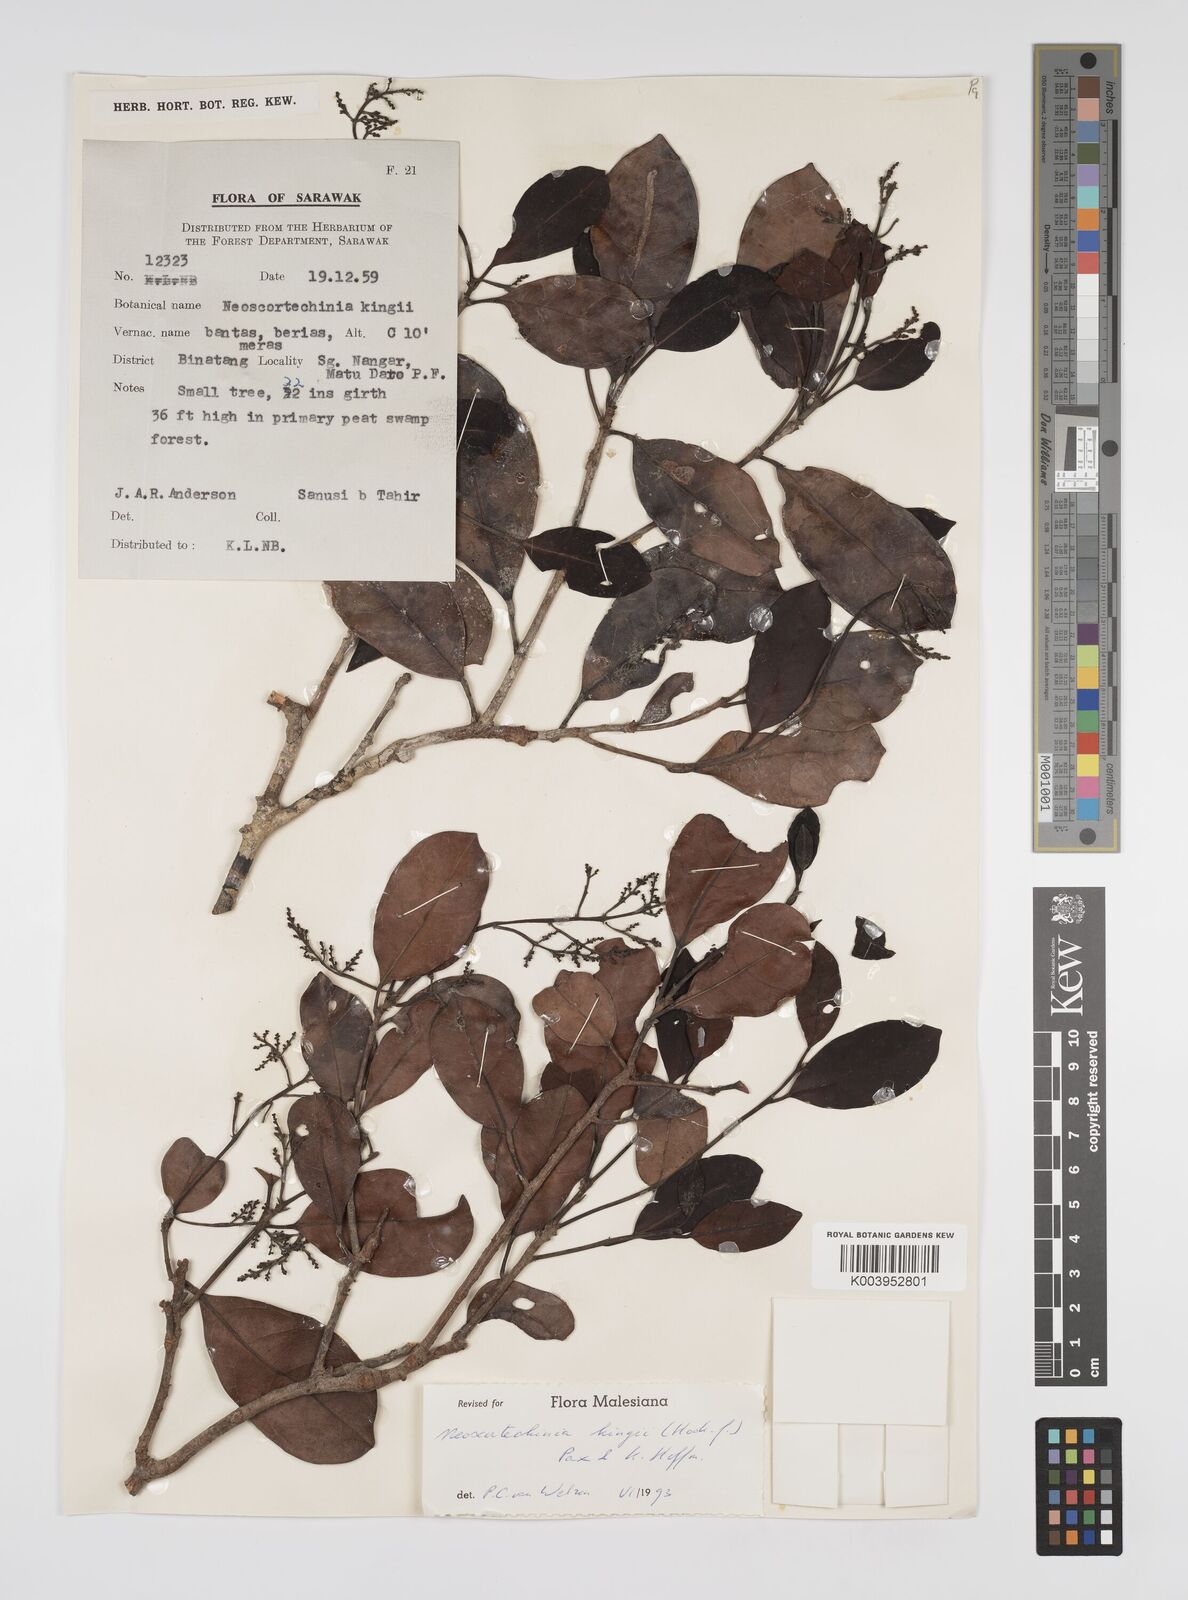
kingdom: Plantae
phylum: Tracheophyta
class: Magnoliopsida
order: Malpighiales
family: Euphorbiaceae
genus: Neoscortechinia
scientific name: Neoscortechinia kingii
